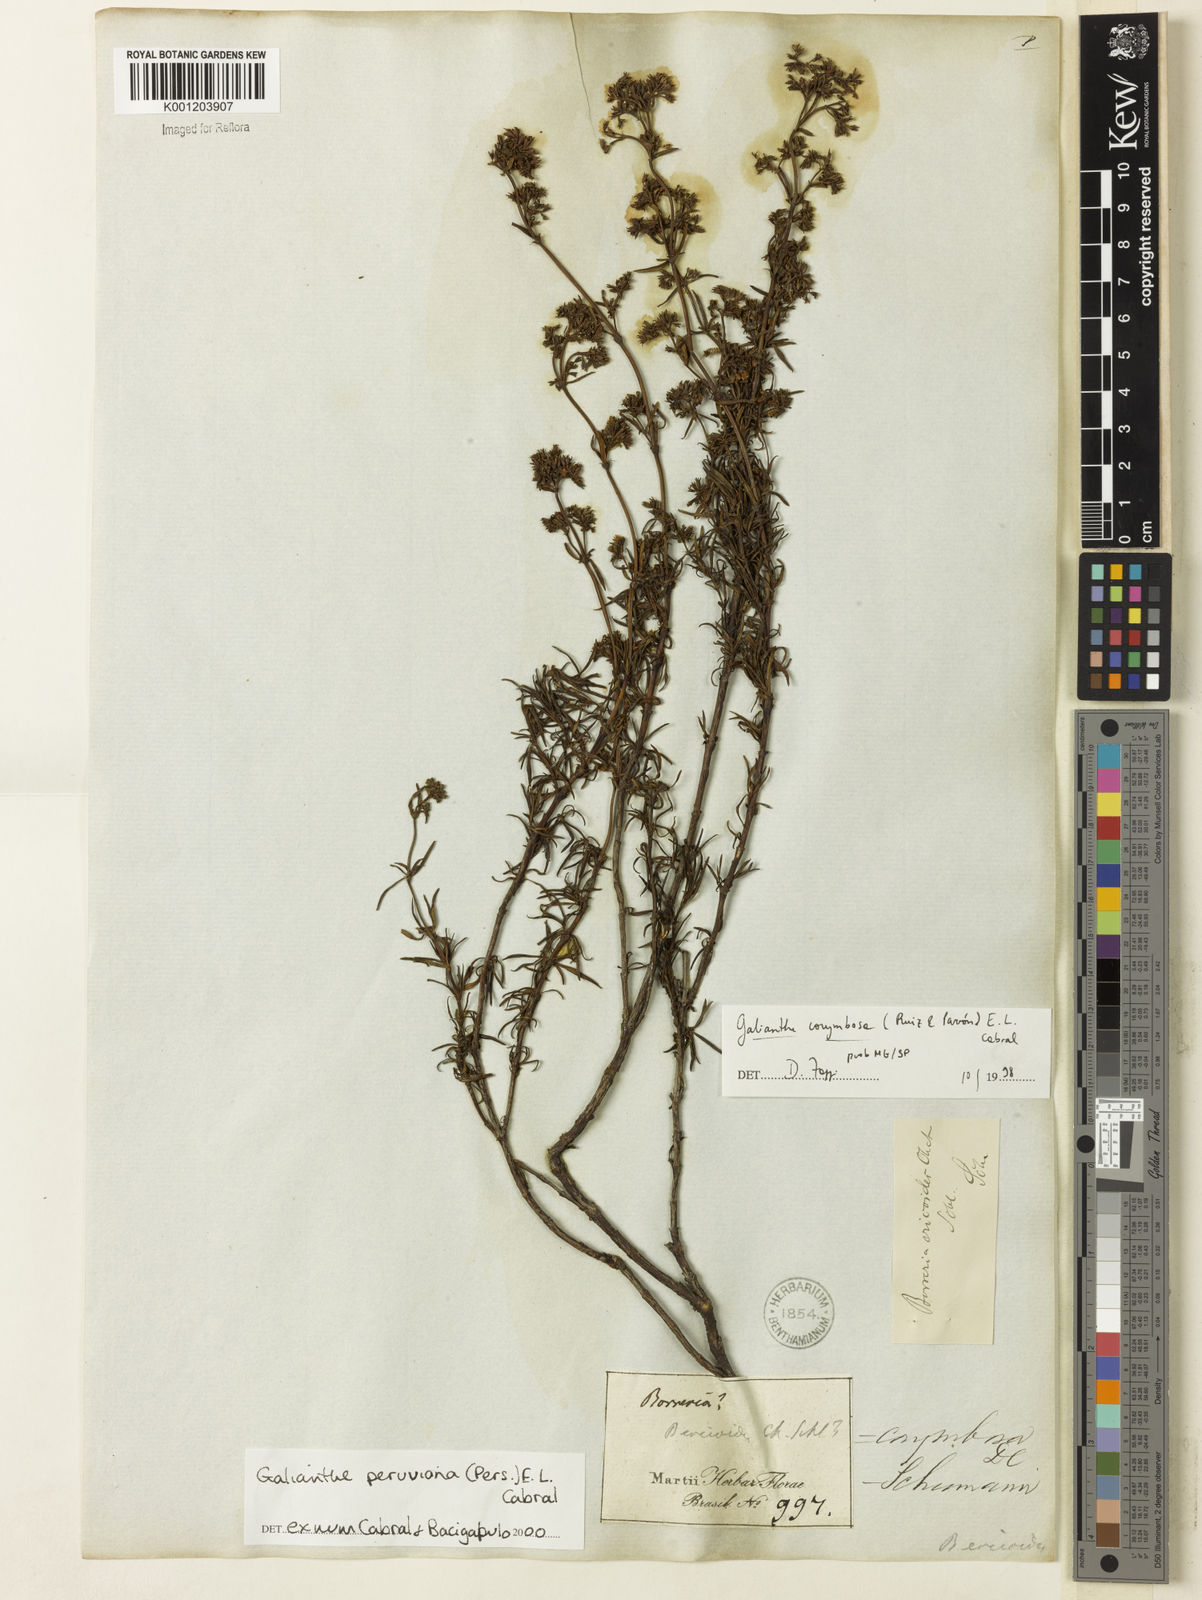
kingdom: Plantae
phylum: Tracheophyta
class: Magnoliopsida
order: Gentianales
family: Rubiaceae
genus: Galianthe
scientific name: Galianthe peruviana
